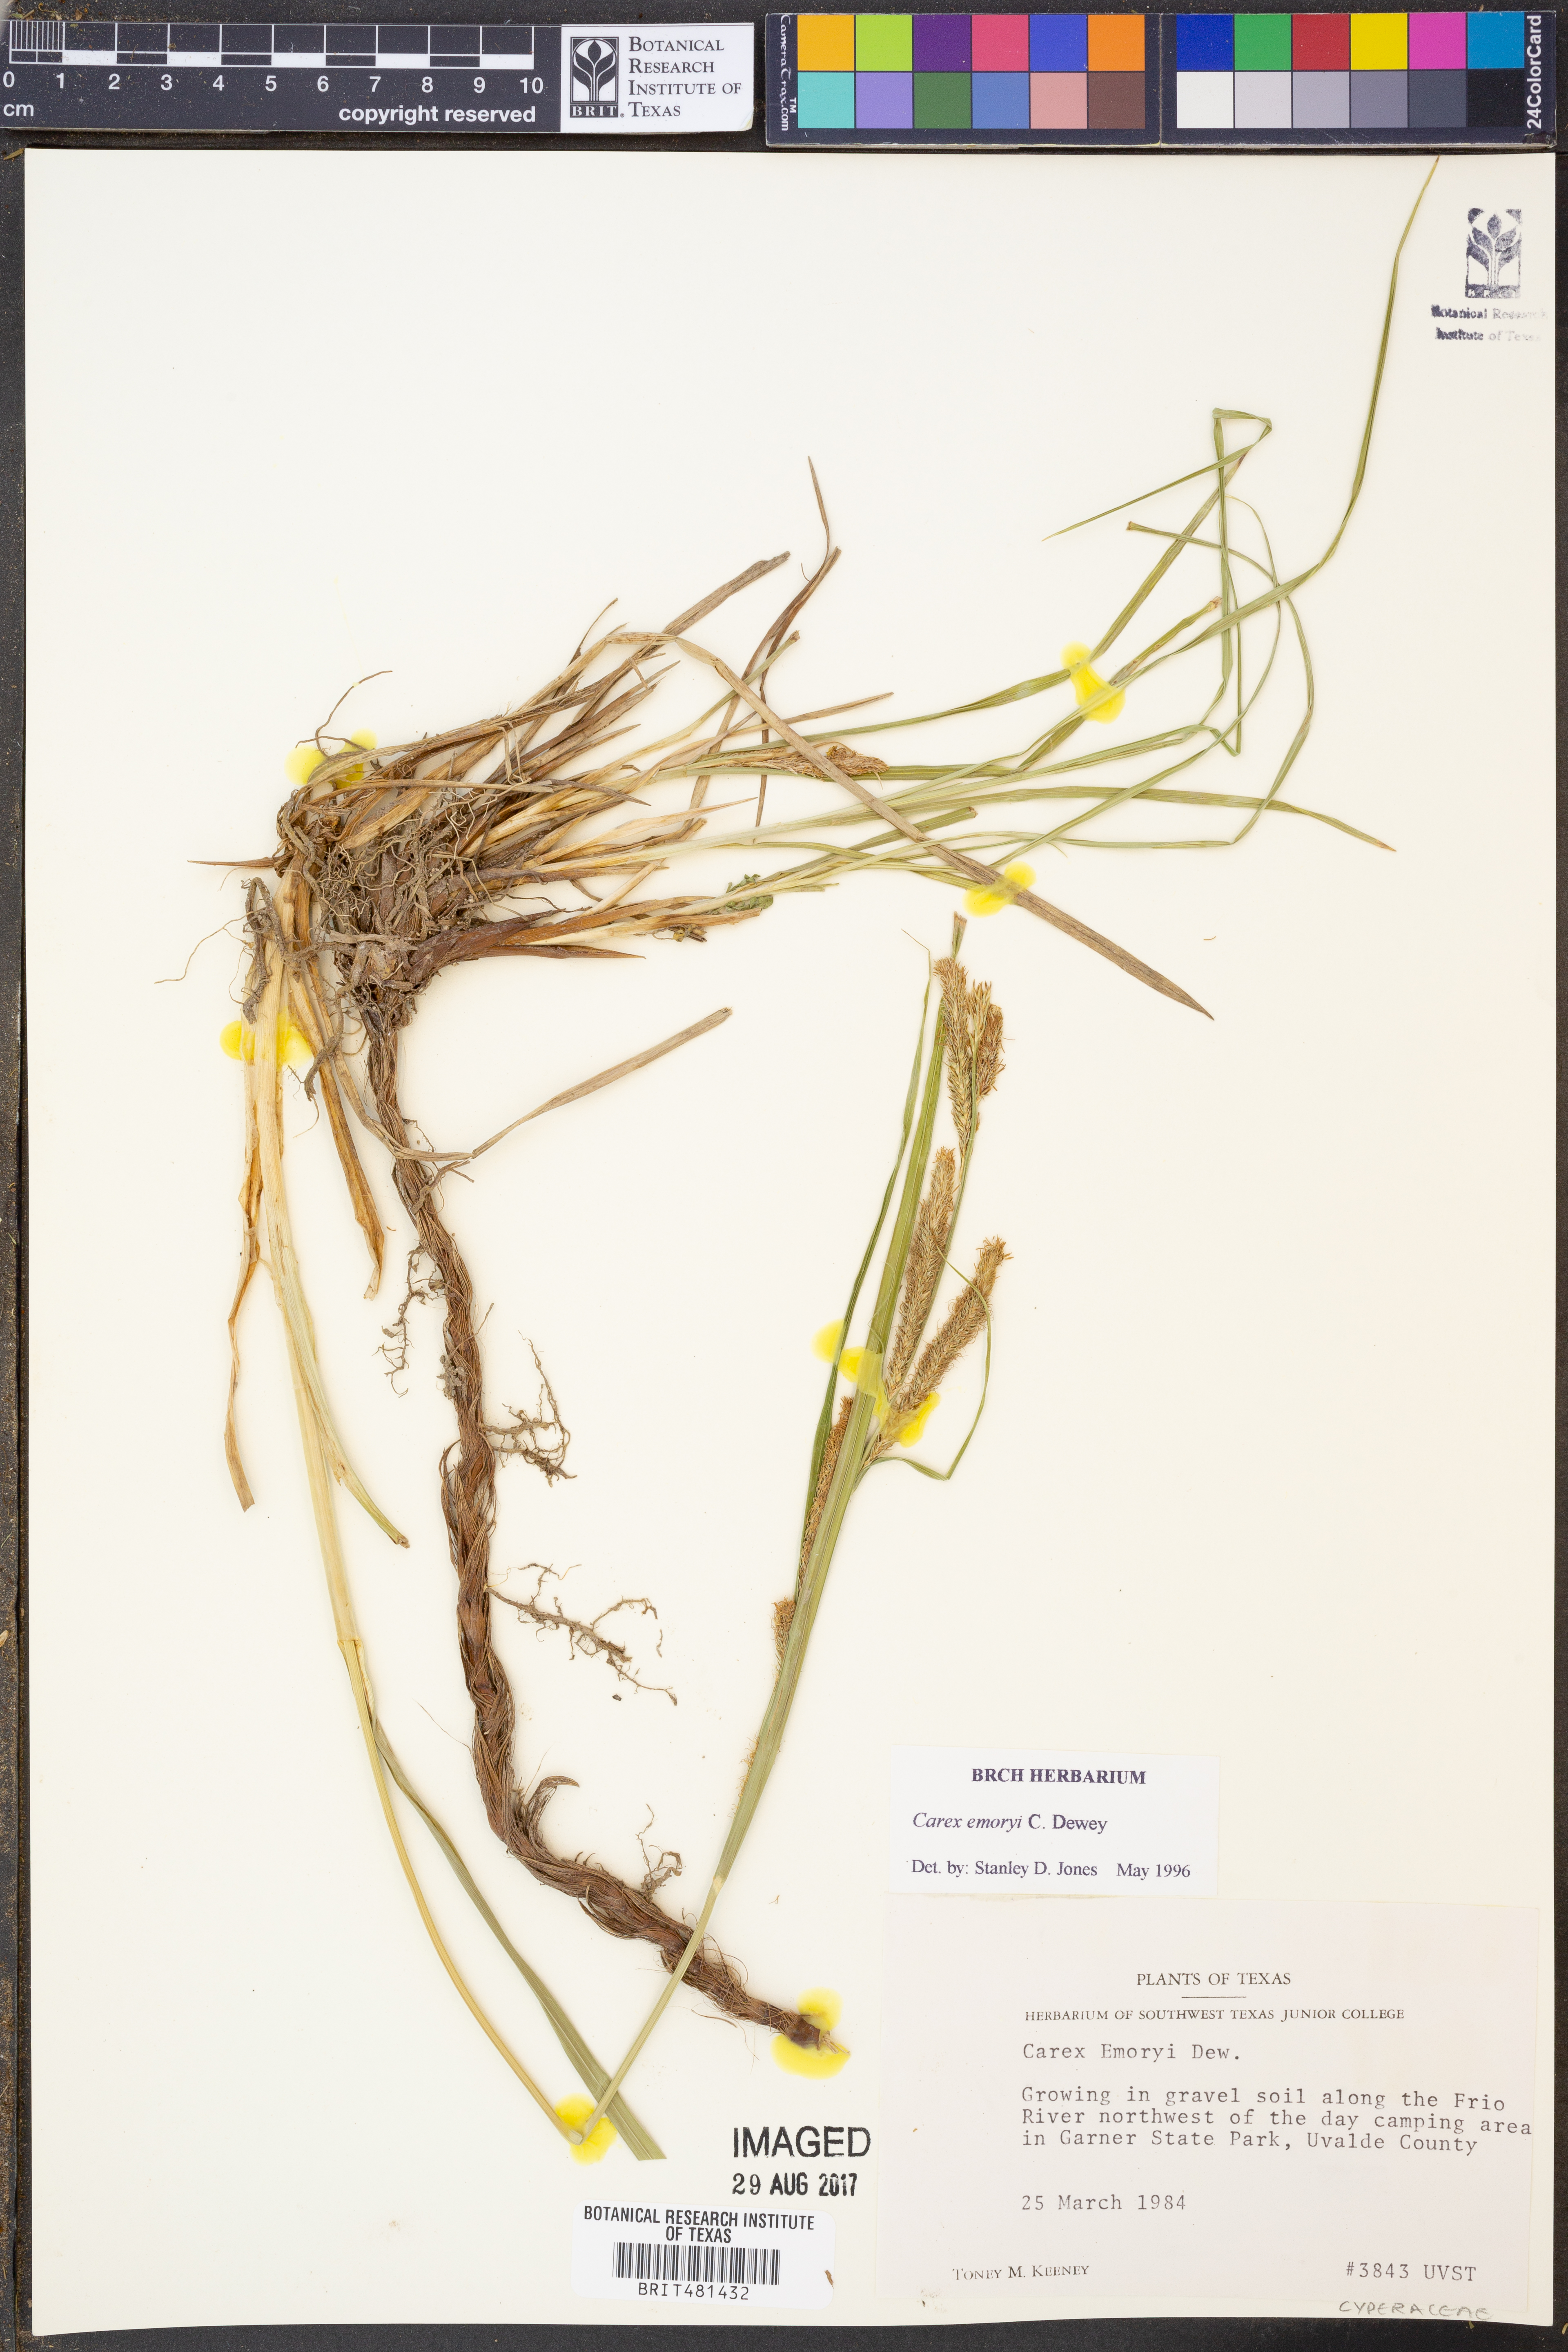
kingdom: Plantae
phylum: Tracheophyta
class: Liliopsida
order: Poales
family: Cyperaceae
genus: Carex
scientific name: Carex emoryi
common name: Emory's sedge
